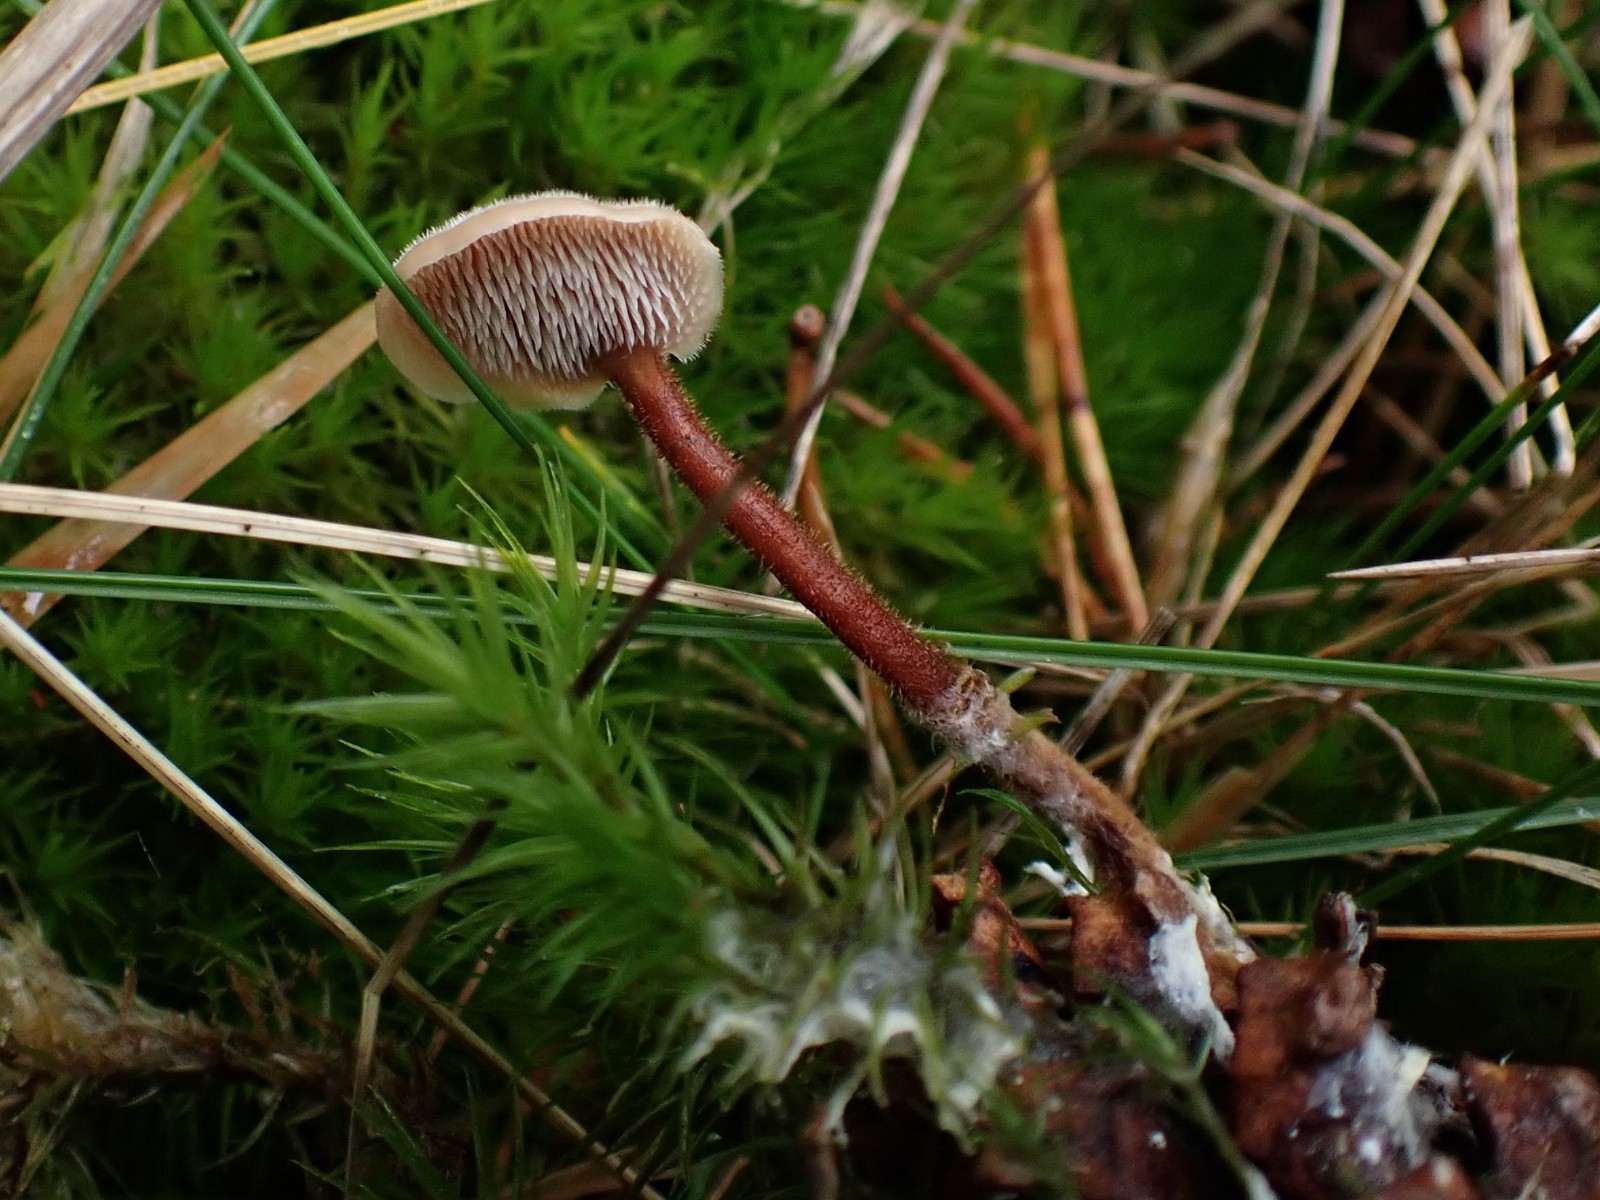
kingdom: Fungi
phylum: Basidiomycota
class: Agaricomycetes
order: Russulales
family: Auriscalpiaceae
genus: Auriscalpium
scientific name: Auriscalpium vulgare
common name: koglepigsvamp
